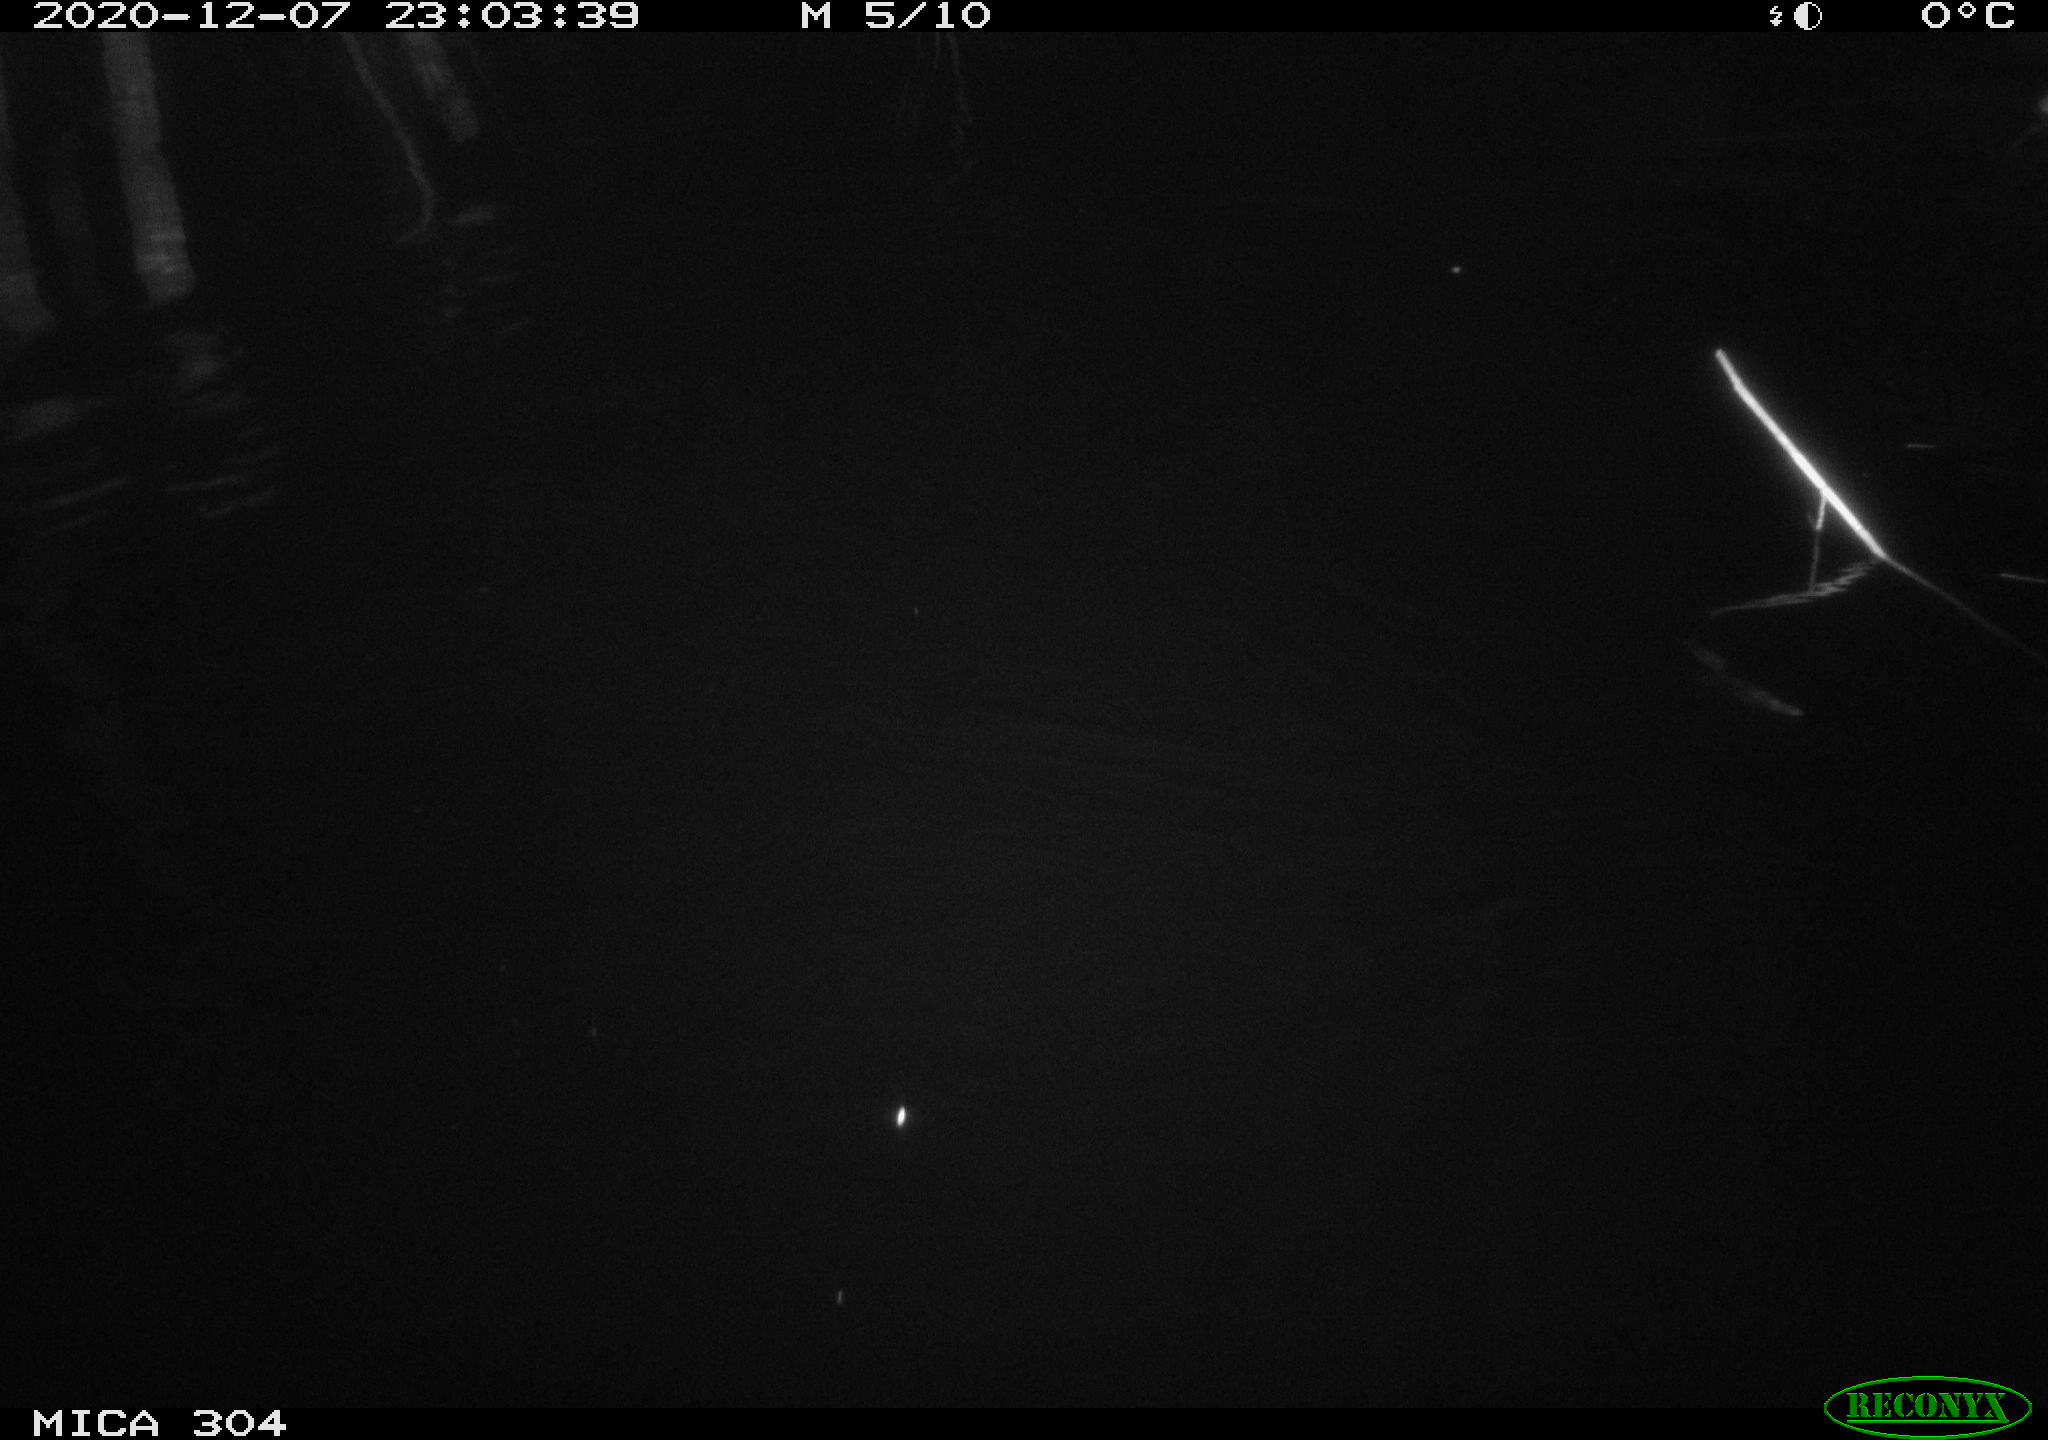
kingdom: Animalia
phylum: Chordata
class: Mammalia
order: Rodentia
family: Muridae
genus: Rattus
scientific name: Rattus norvegicus
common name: Brown rat
